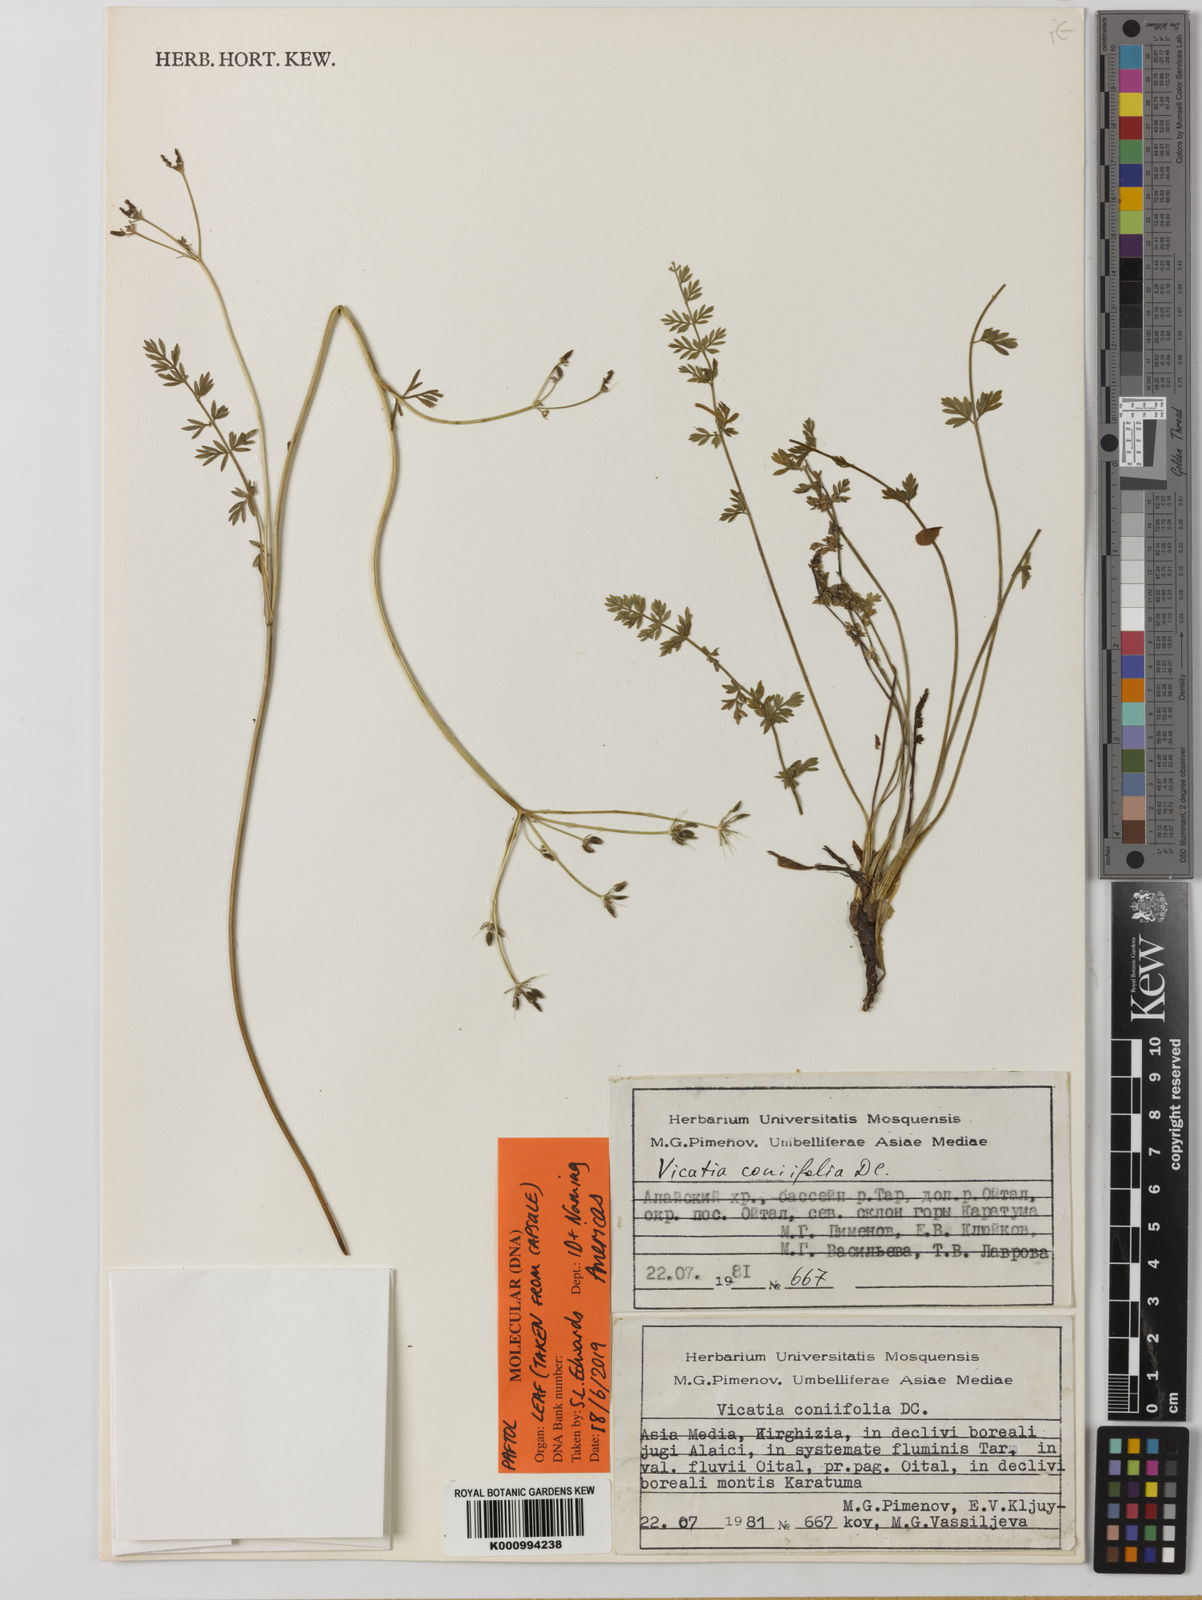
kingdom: Plantae
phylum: Tracheophyta
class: Magnoliopsida
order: Apiales
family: Apiaceae
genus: Vicatia
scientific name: Vicatia coniifolia
